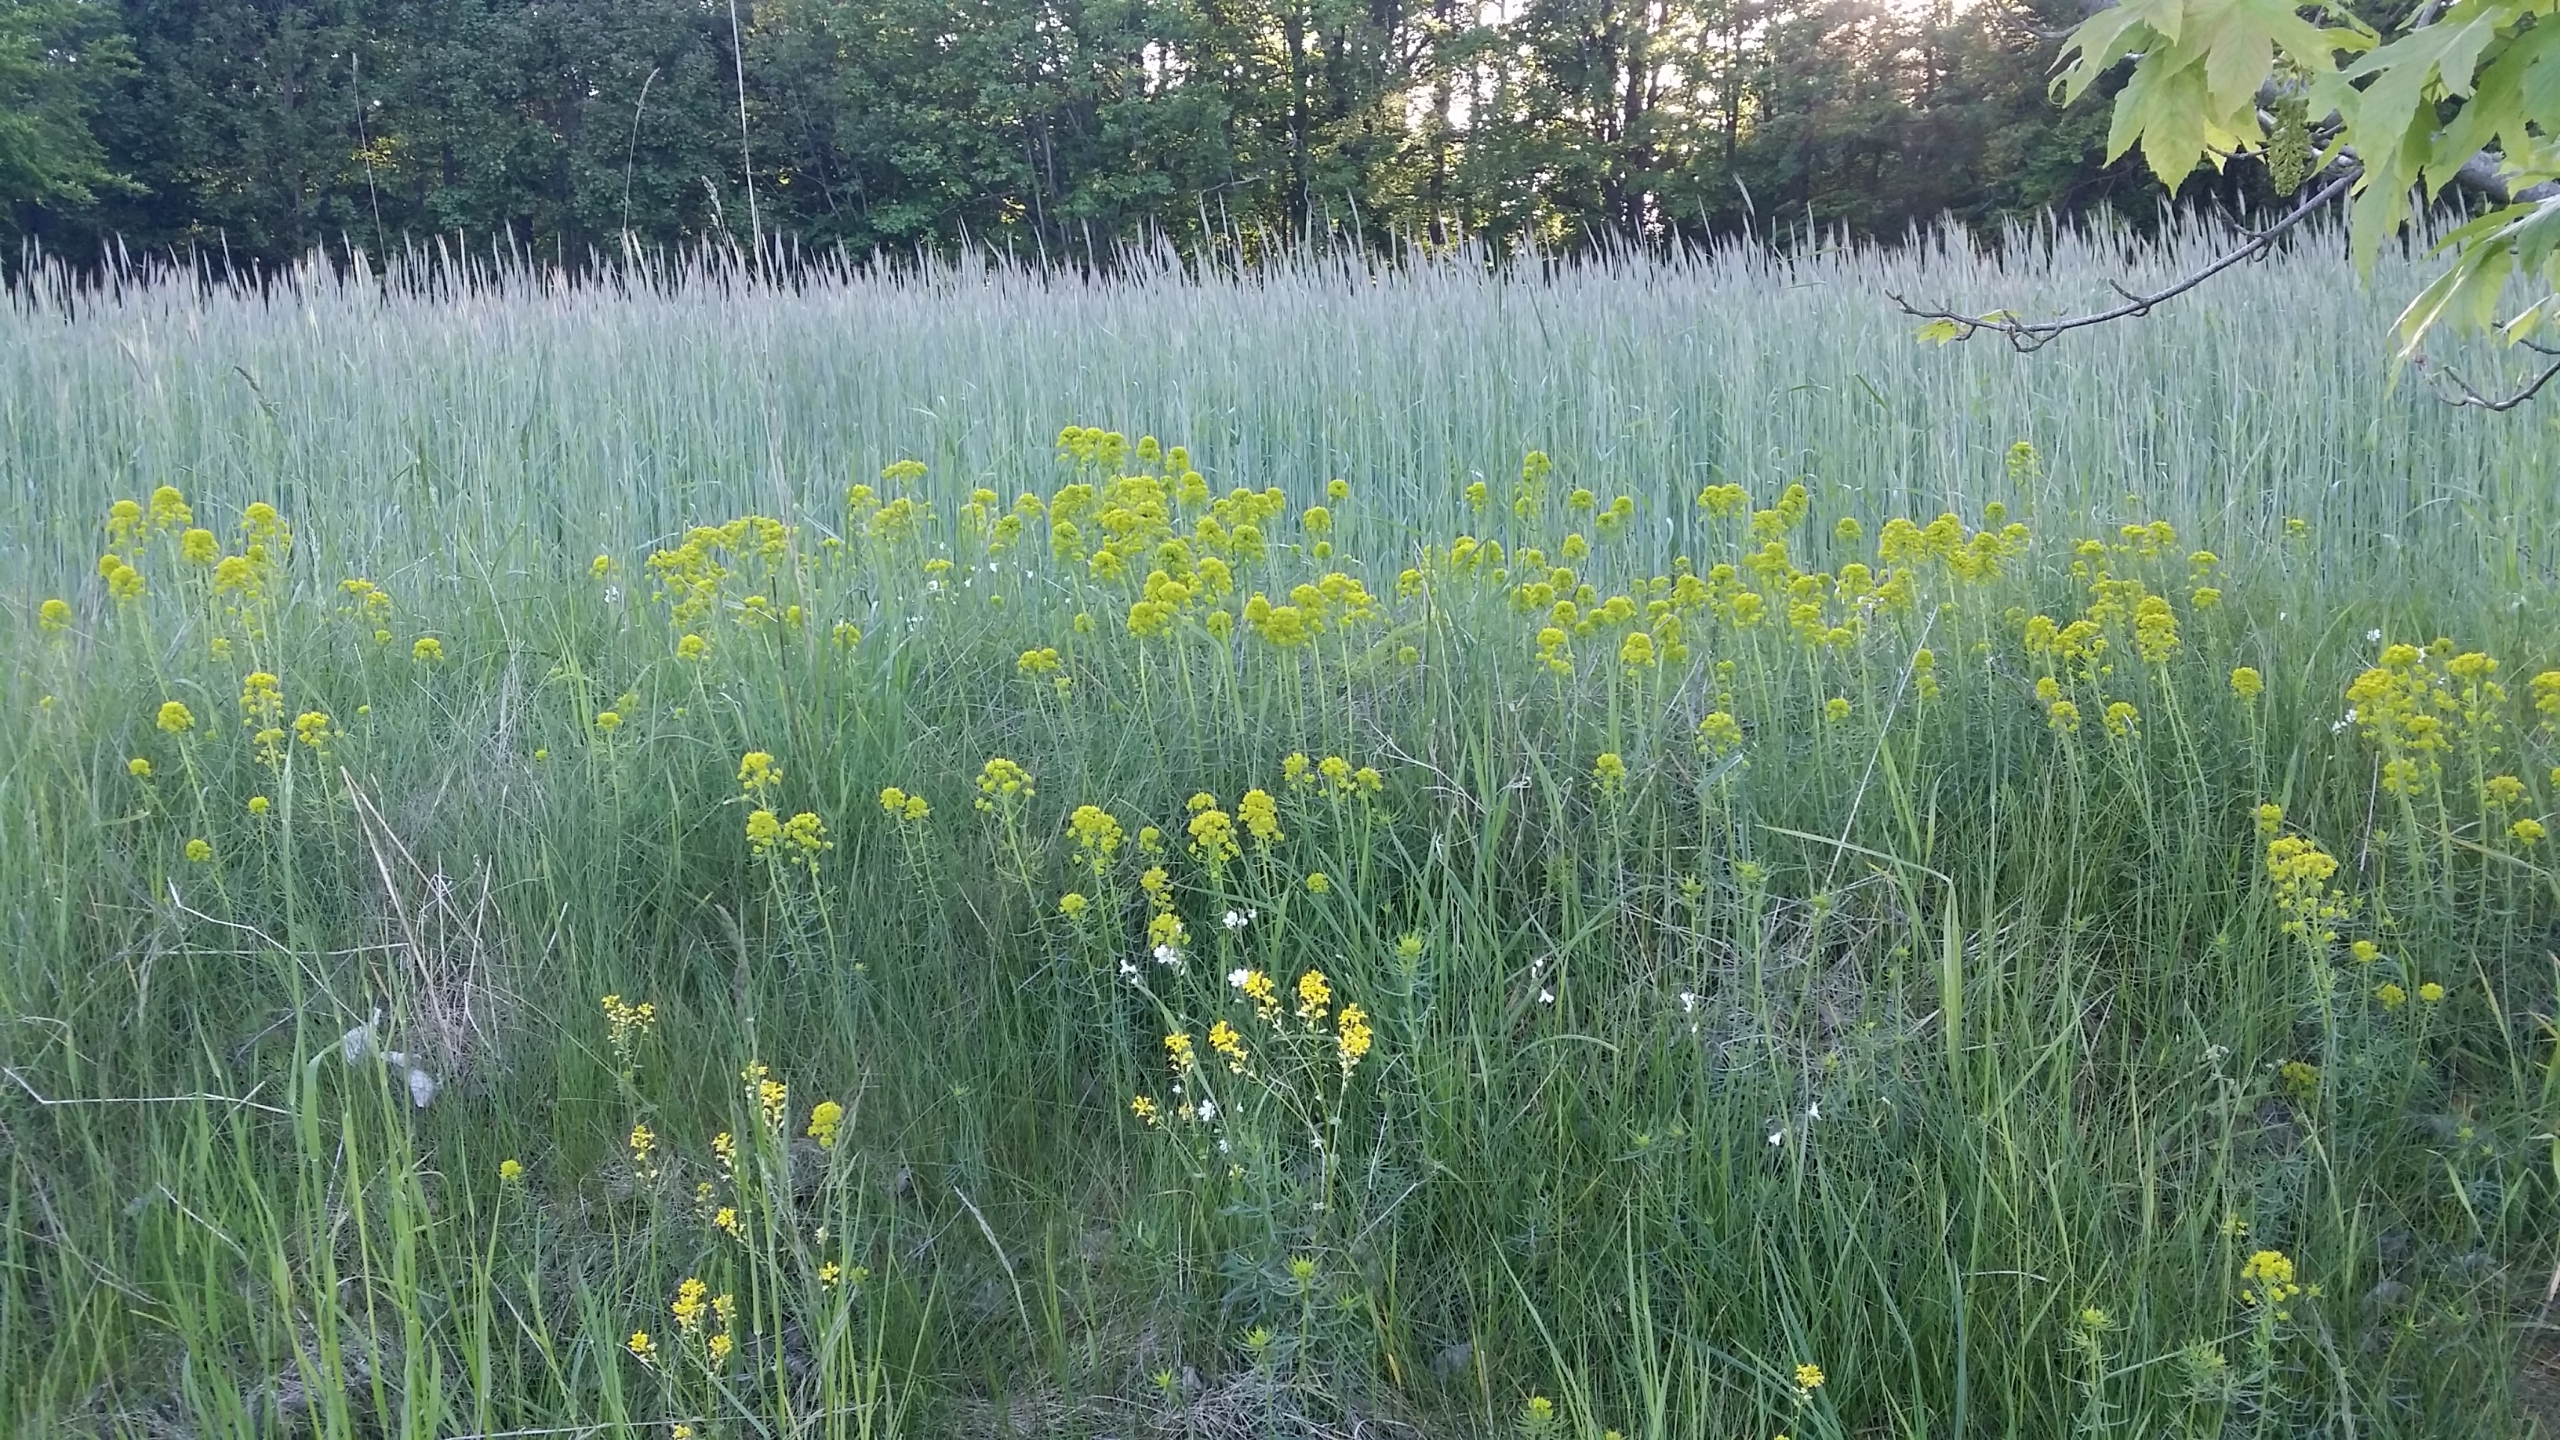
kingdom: Plantae
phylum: Tracheophyta
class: Magnoliopsida
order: Malpighiales
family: Euphorbiaceae
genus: Euphorbia
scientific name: Euphorbia tommasiniana
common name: Ris-vortemælk
